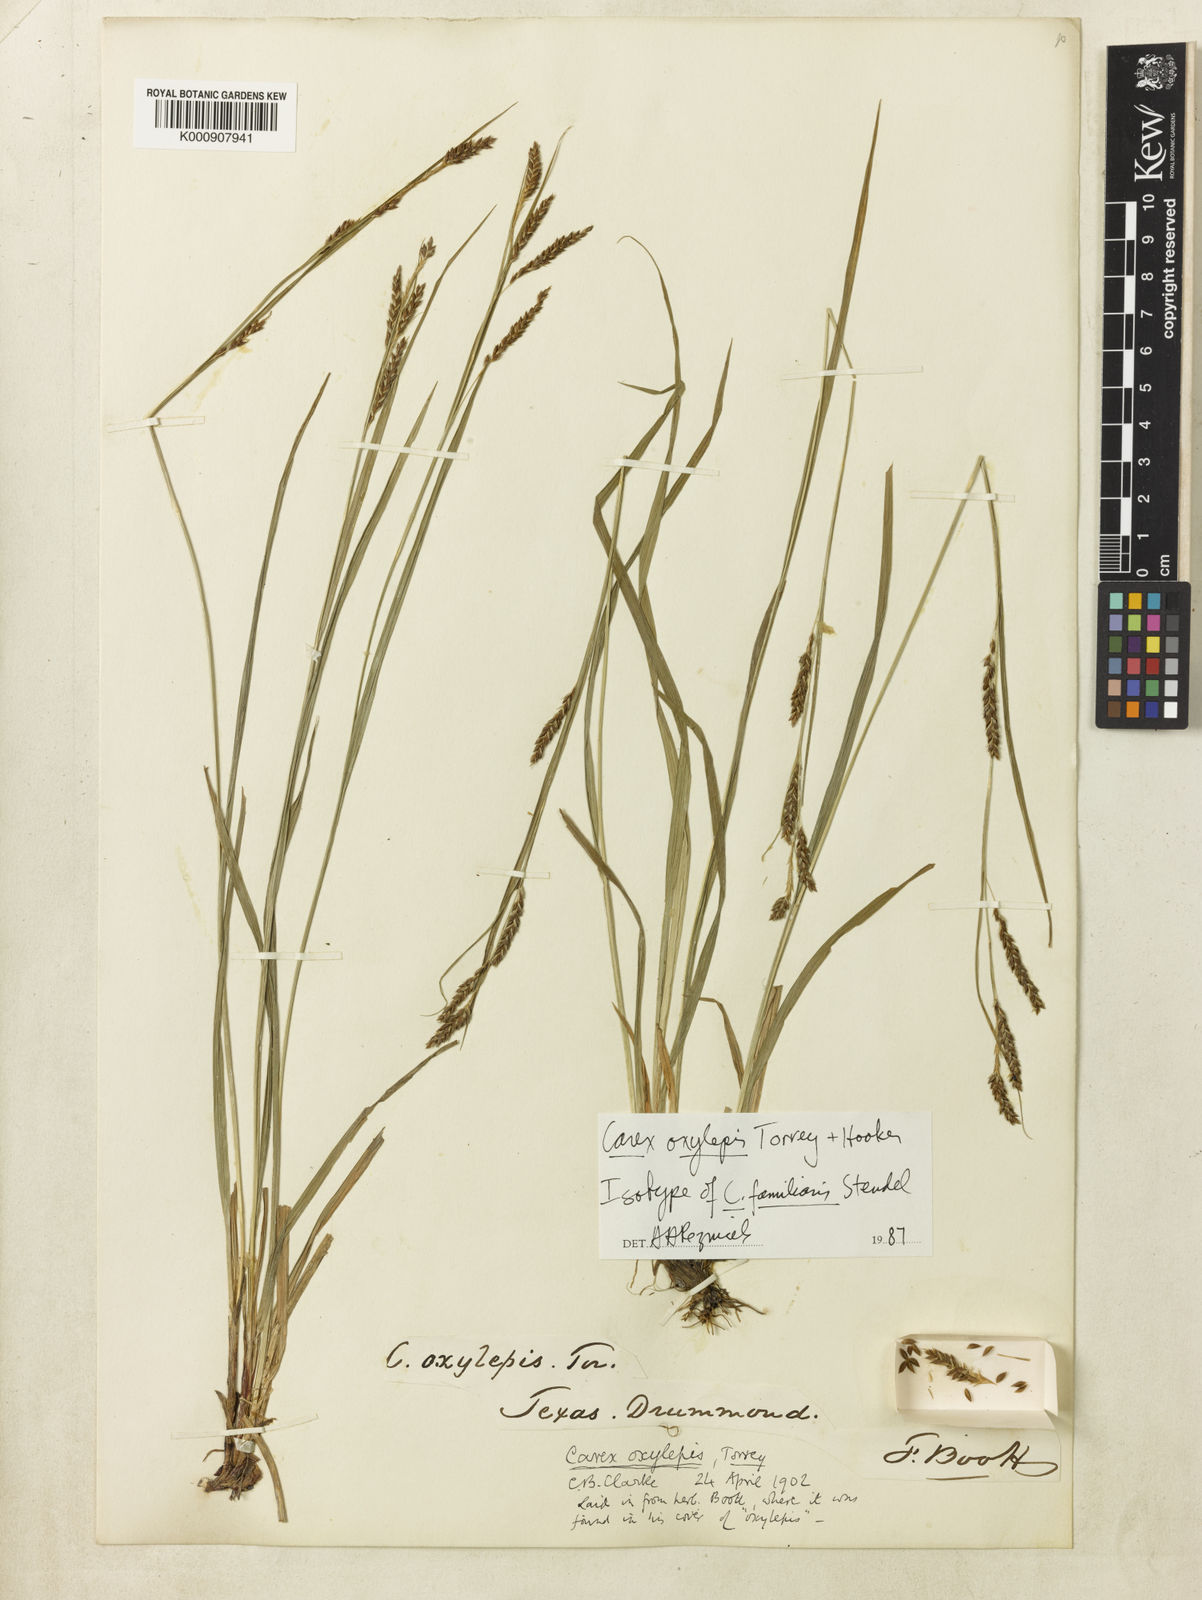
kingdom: Plantae
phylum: Tracheophyta
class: Liliopsida
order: Poales
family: Cyperaceae
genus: Carex
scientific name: Carex oxylepis
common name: Sharpscale sedge
